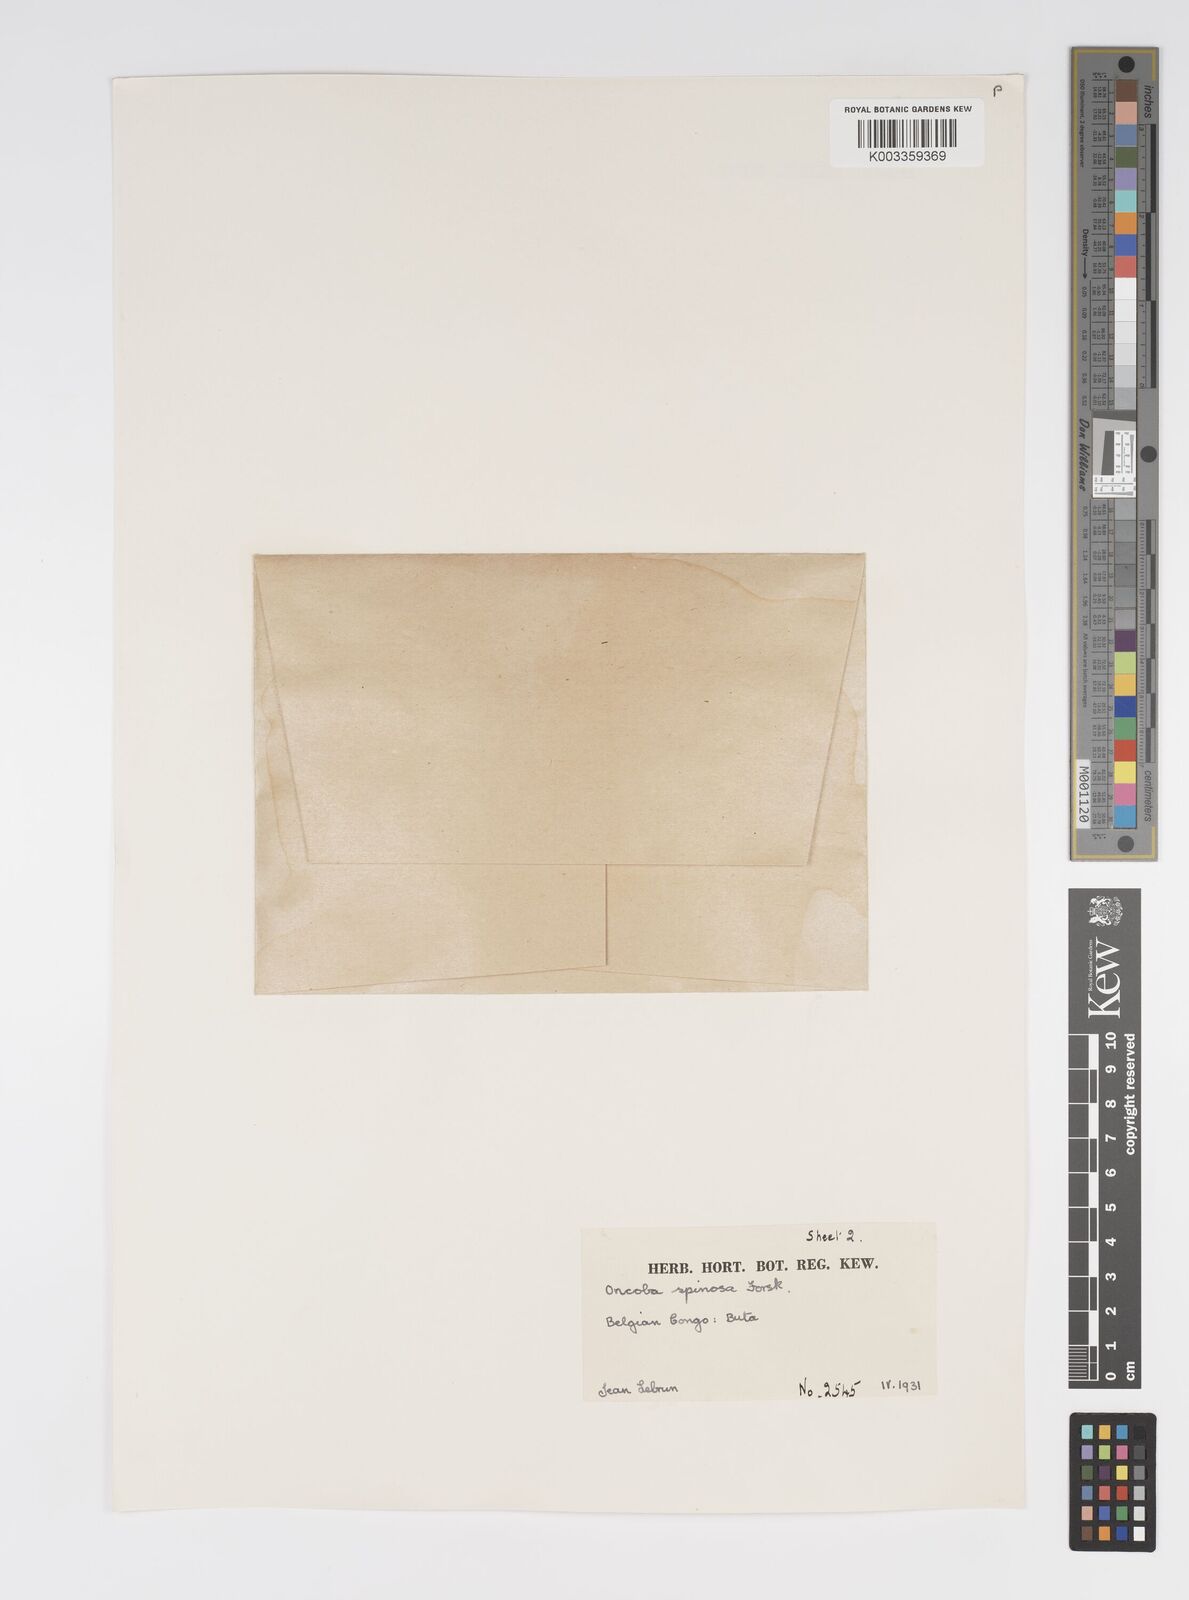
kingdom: Plantae
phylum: Tracheophyta
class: Magnoliopsida
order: Malpighiales
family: Salicaceae
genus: Oncoba
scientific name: Oncoba spinosa
